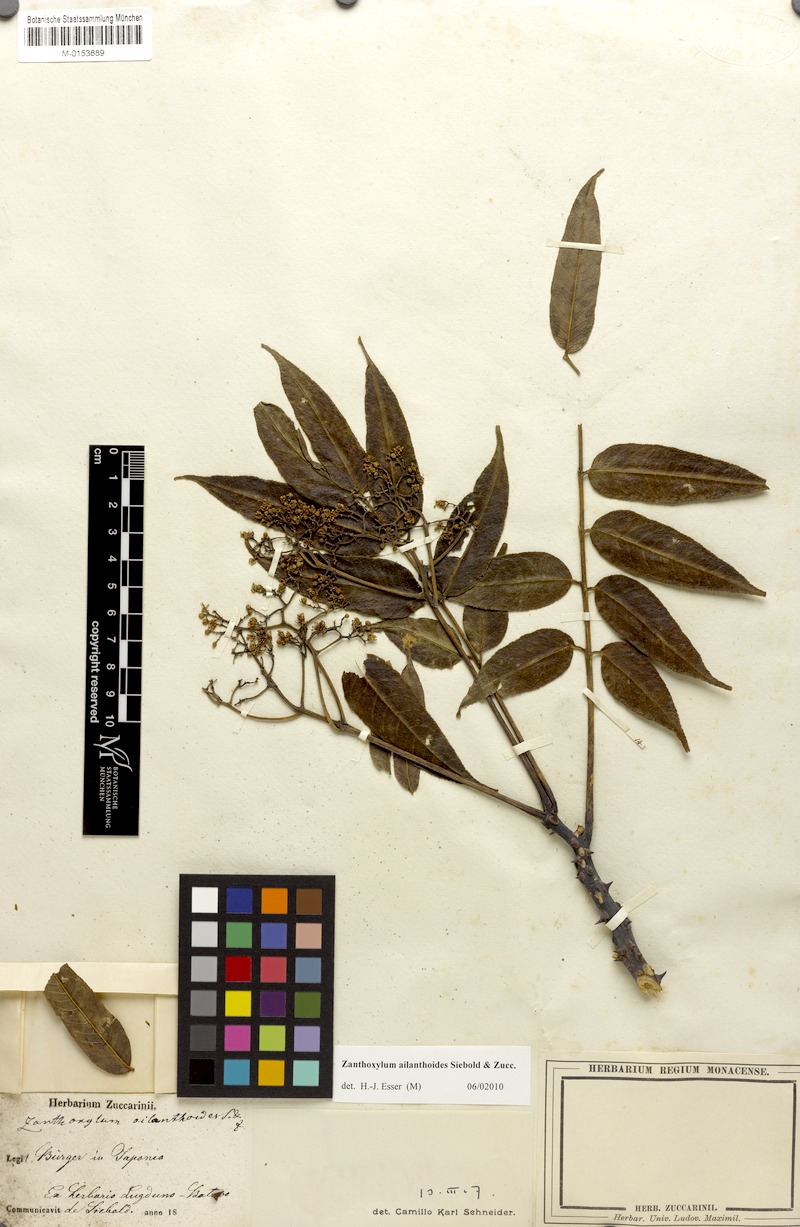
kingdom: Plantae
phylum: Tracheophyta
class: Magnoliopsida
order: Sapindales
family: Rutaceae
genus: Zanthoxylum
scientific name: Zanthoxylum ailanthoides
